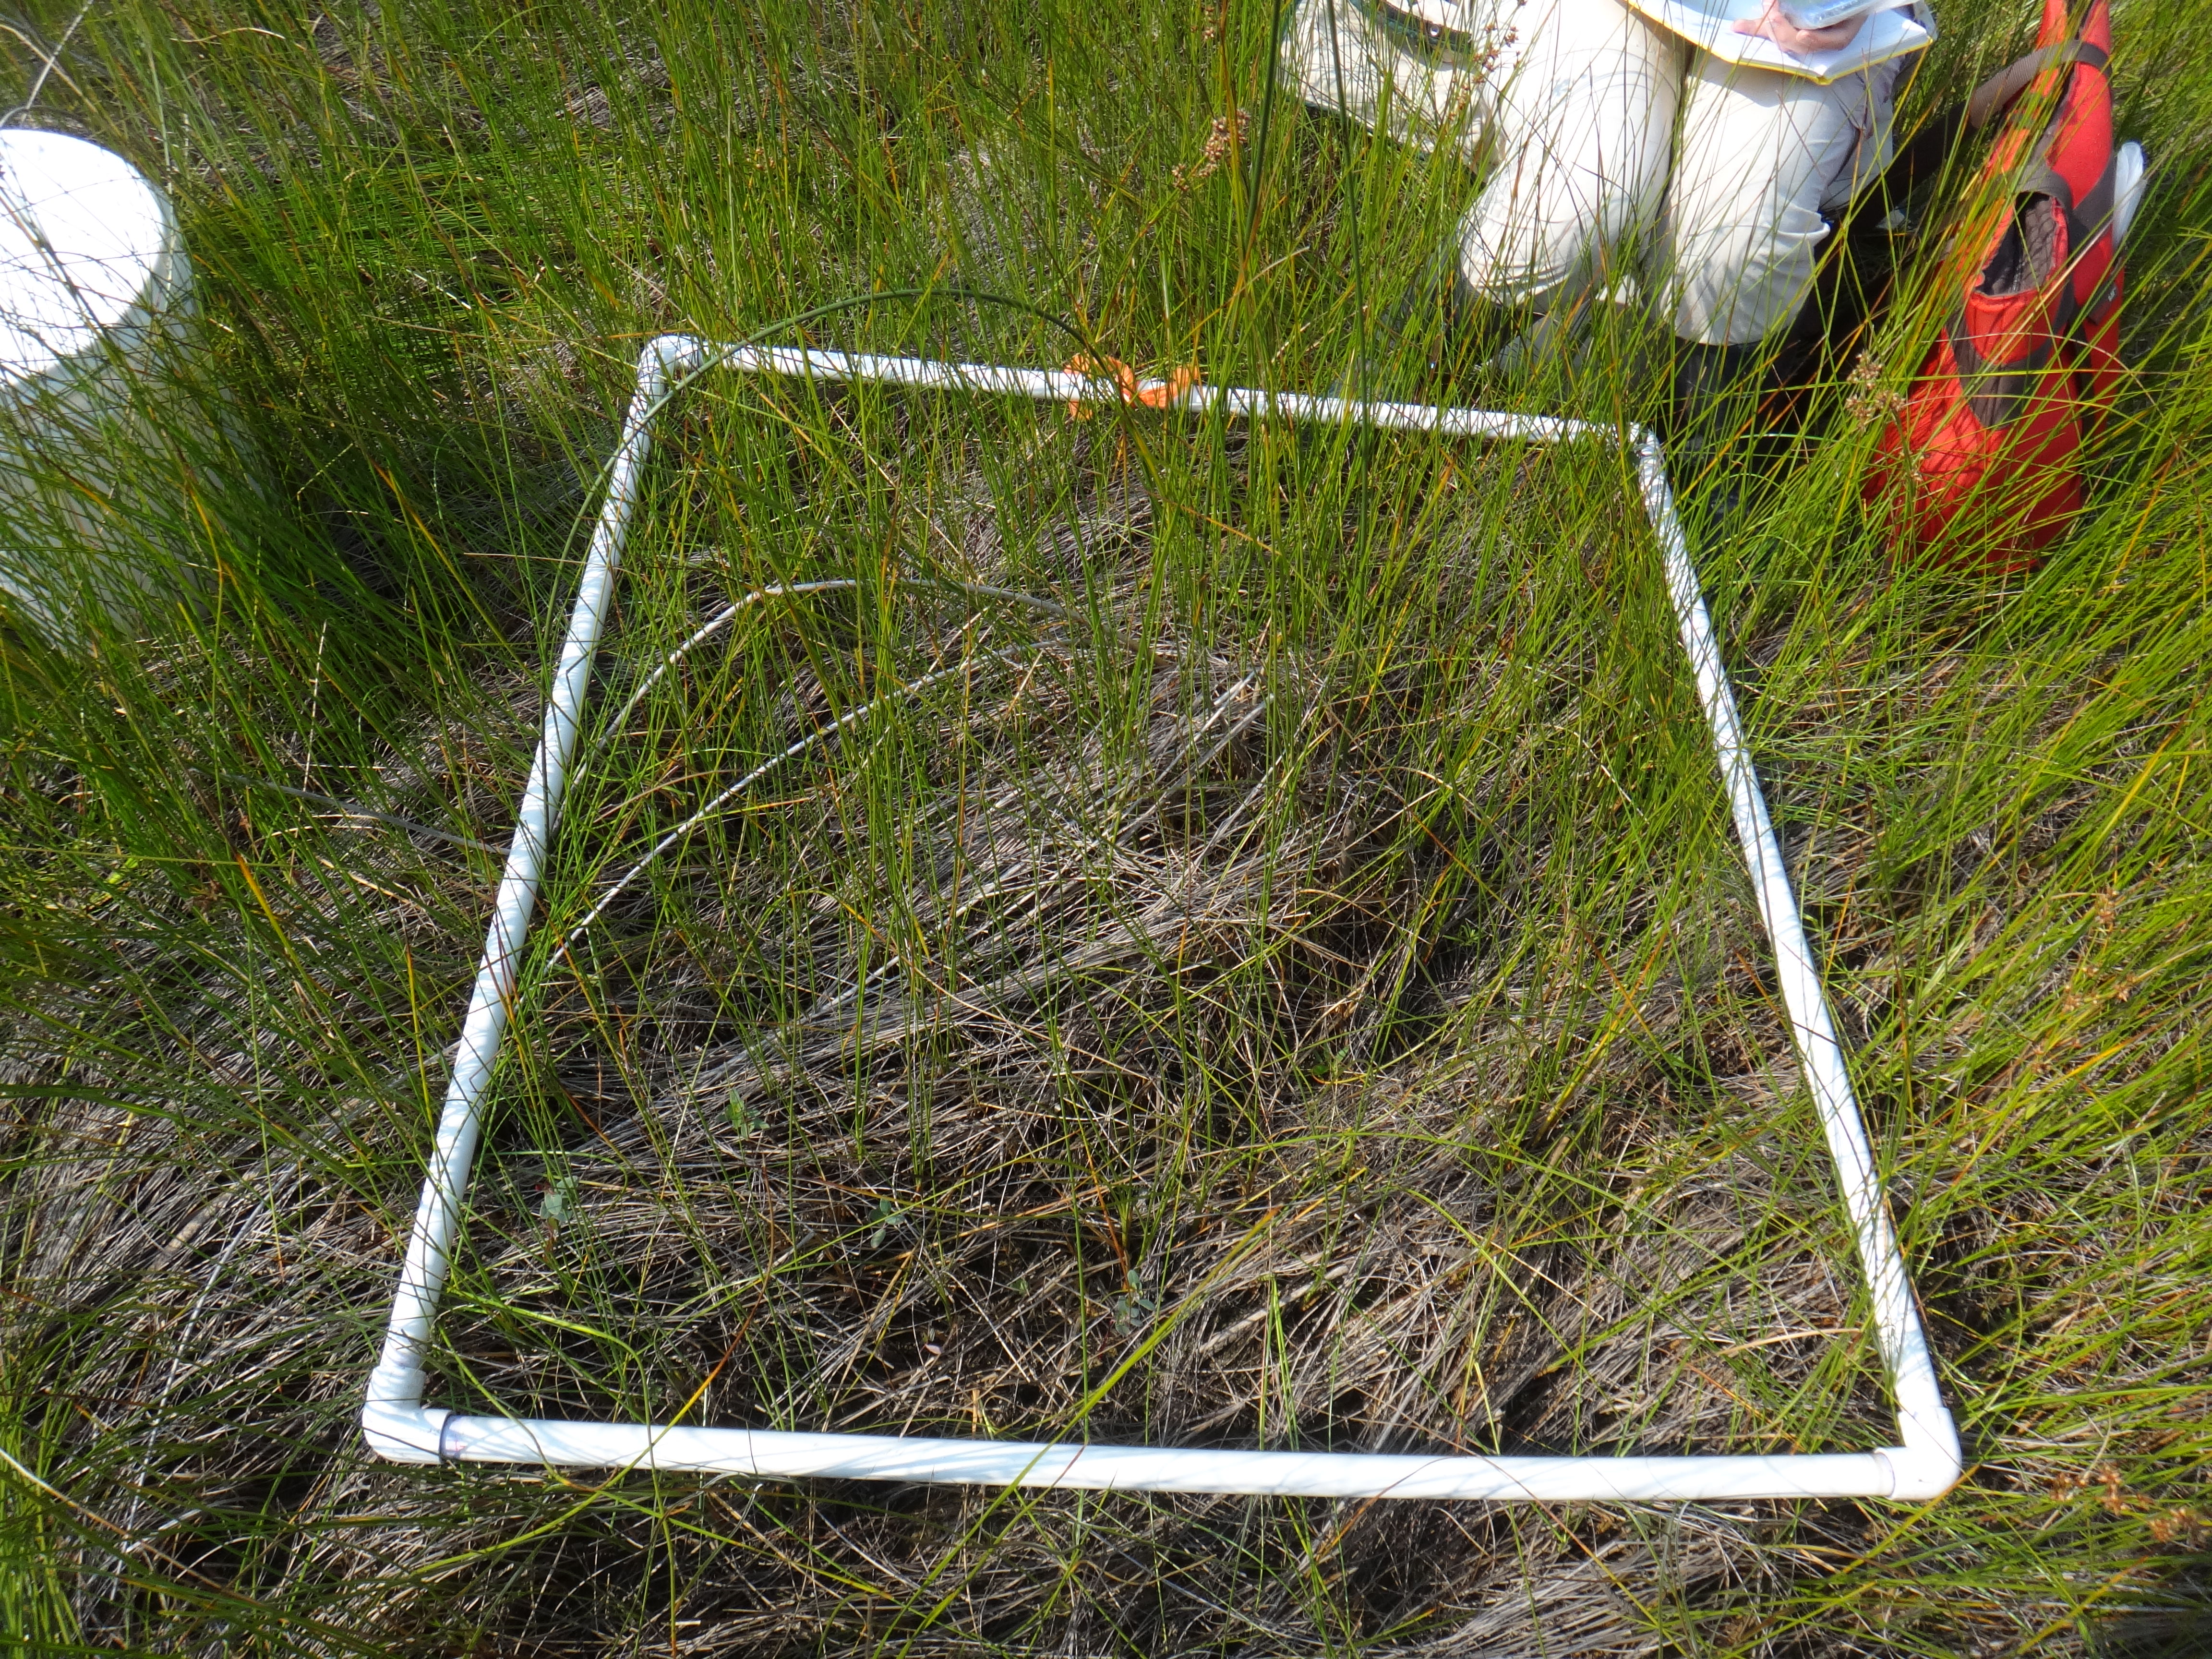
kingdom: Plantae
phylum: Tracheophyta
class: Magnoliopsida
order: Malpighiales
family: Hypericaceae
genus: Triadenum
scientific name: Triadenum fraseri
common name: Fraser's marsh st. johnswort
